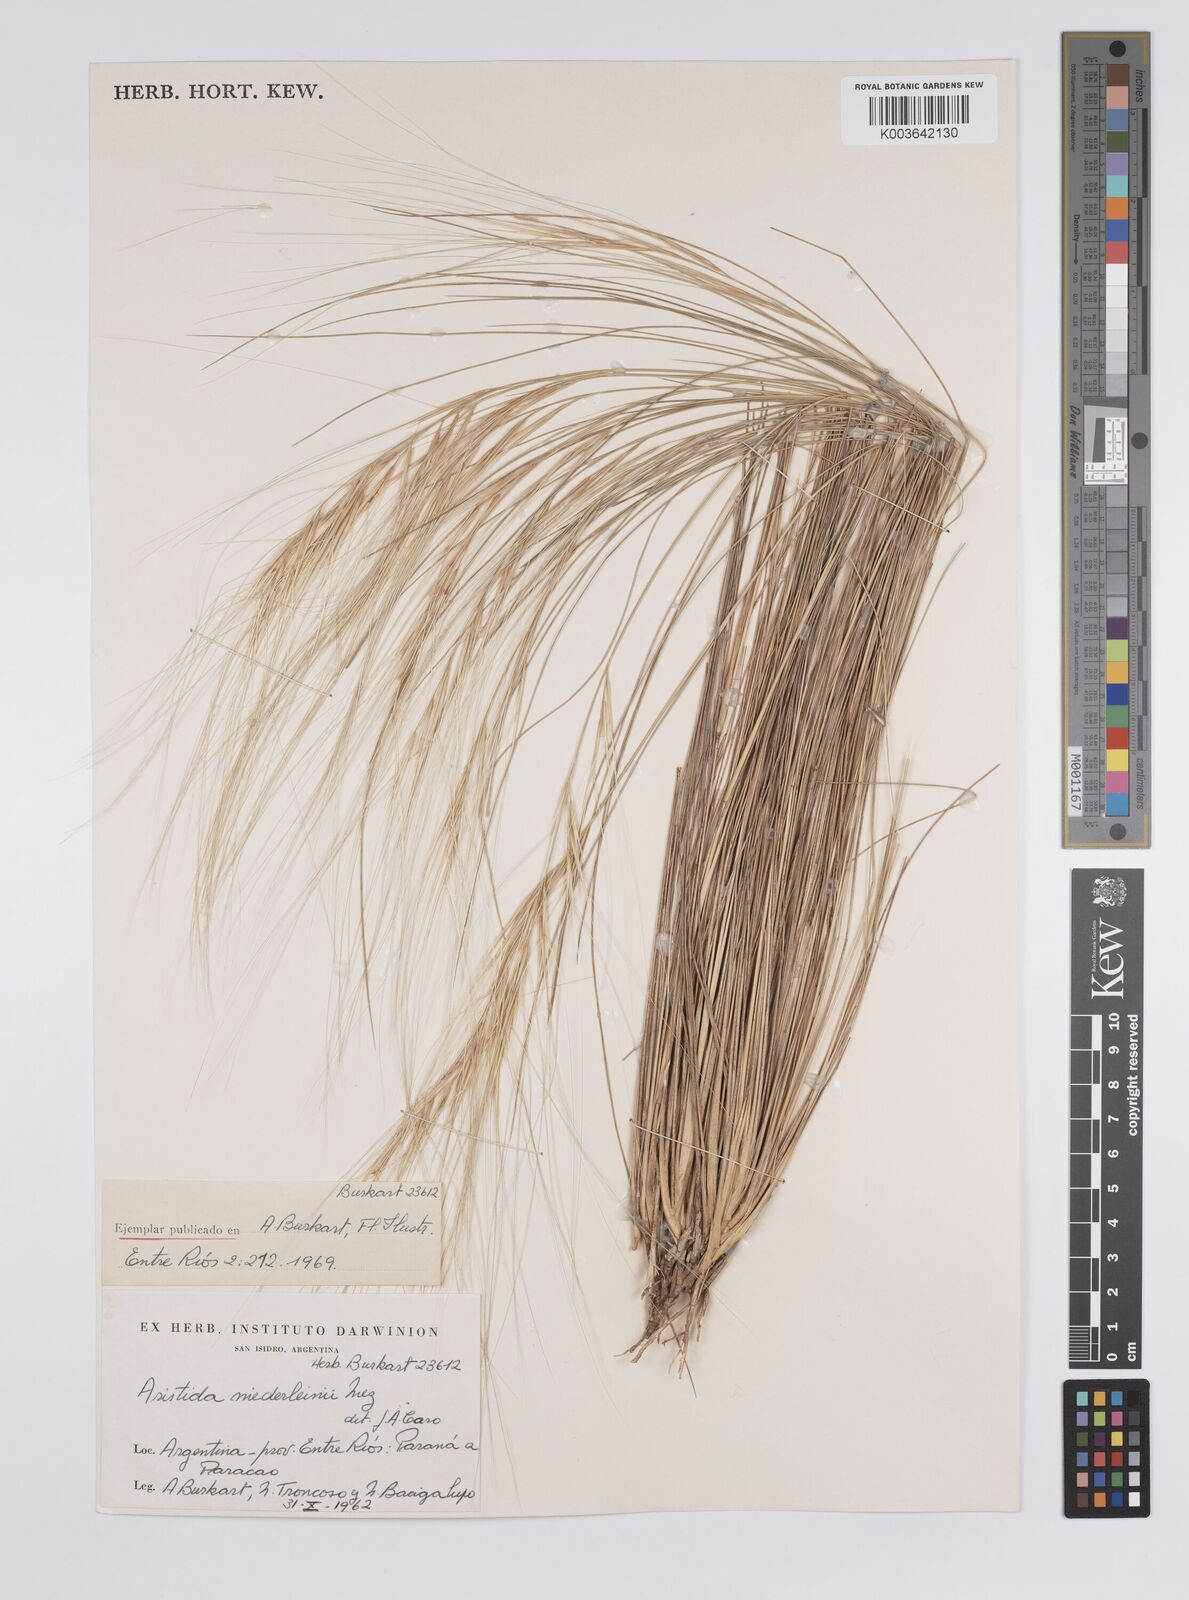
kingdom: Plantae
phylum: Tracheophyta
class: Liliopsida
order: Poales
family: Poaceae
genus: Aristida
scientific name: Aristida niederleinii
